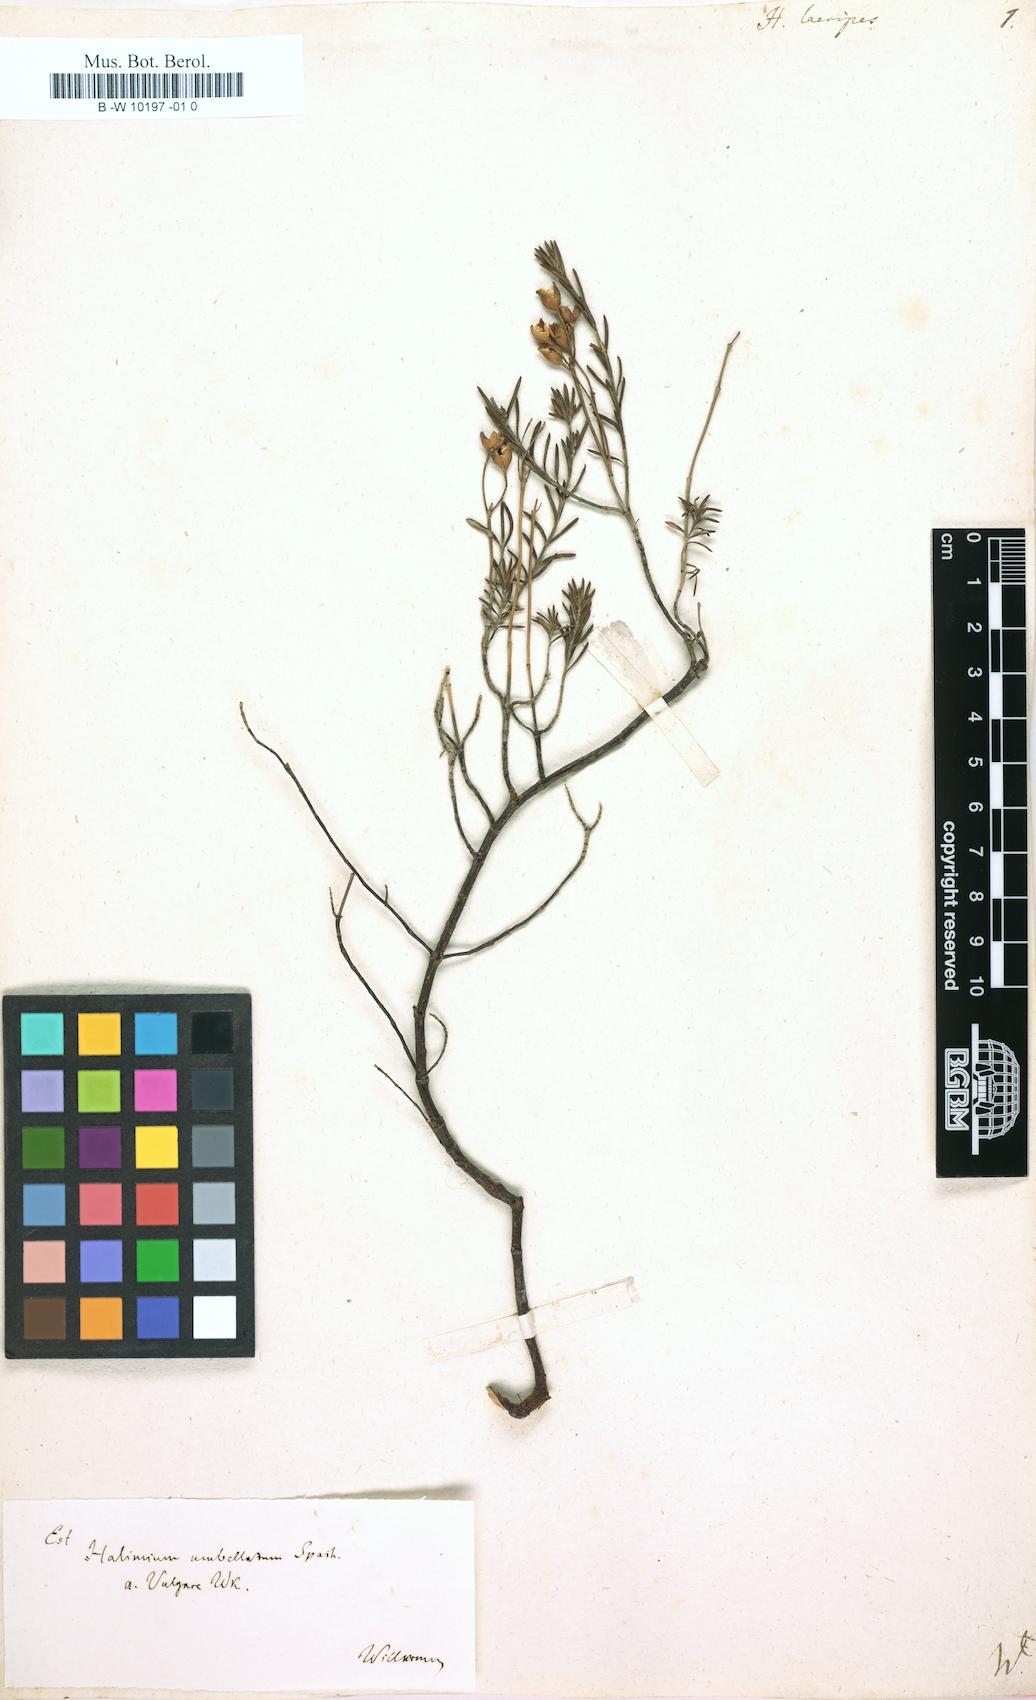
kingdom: Plantae
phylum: Tracheophyta
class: Magnoliopsida
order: Malvales
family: Cistaceae
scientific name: Cistaceae
